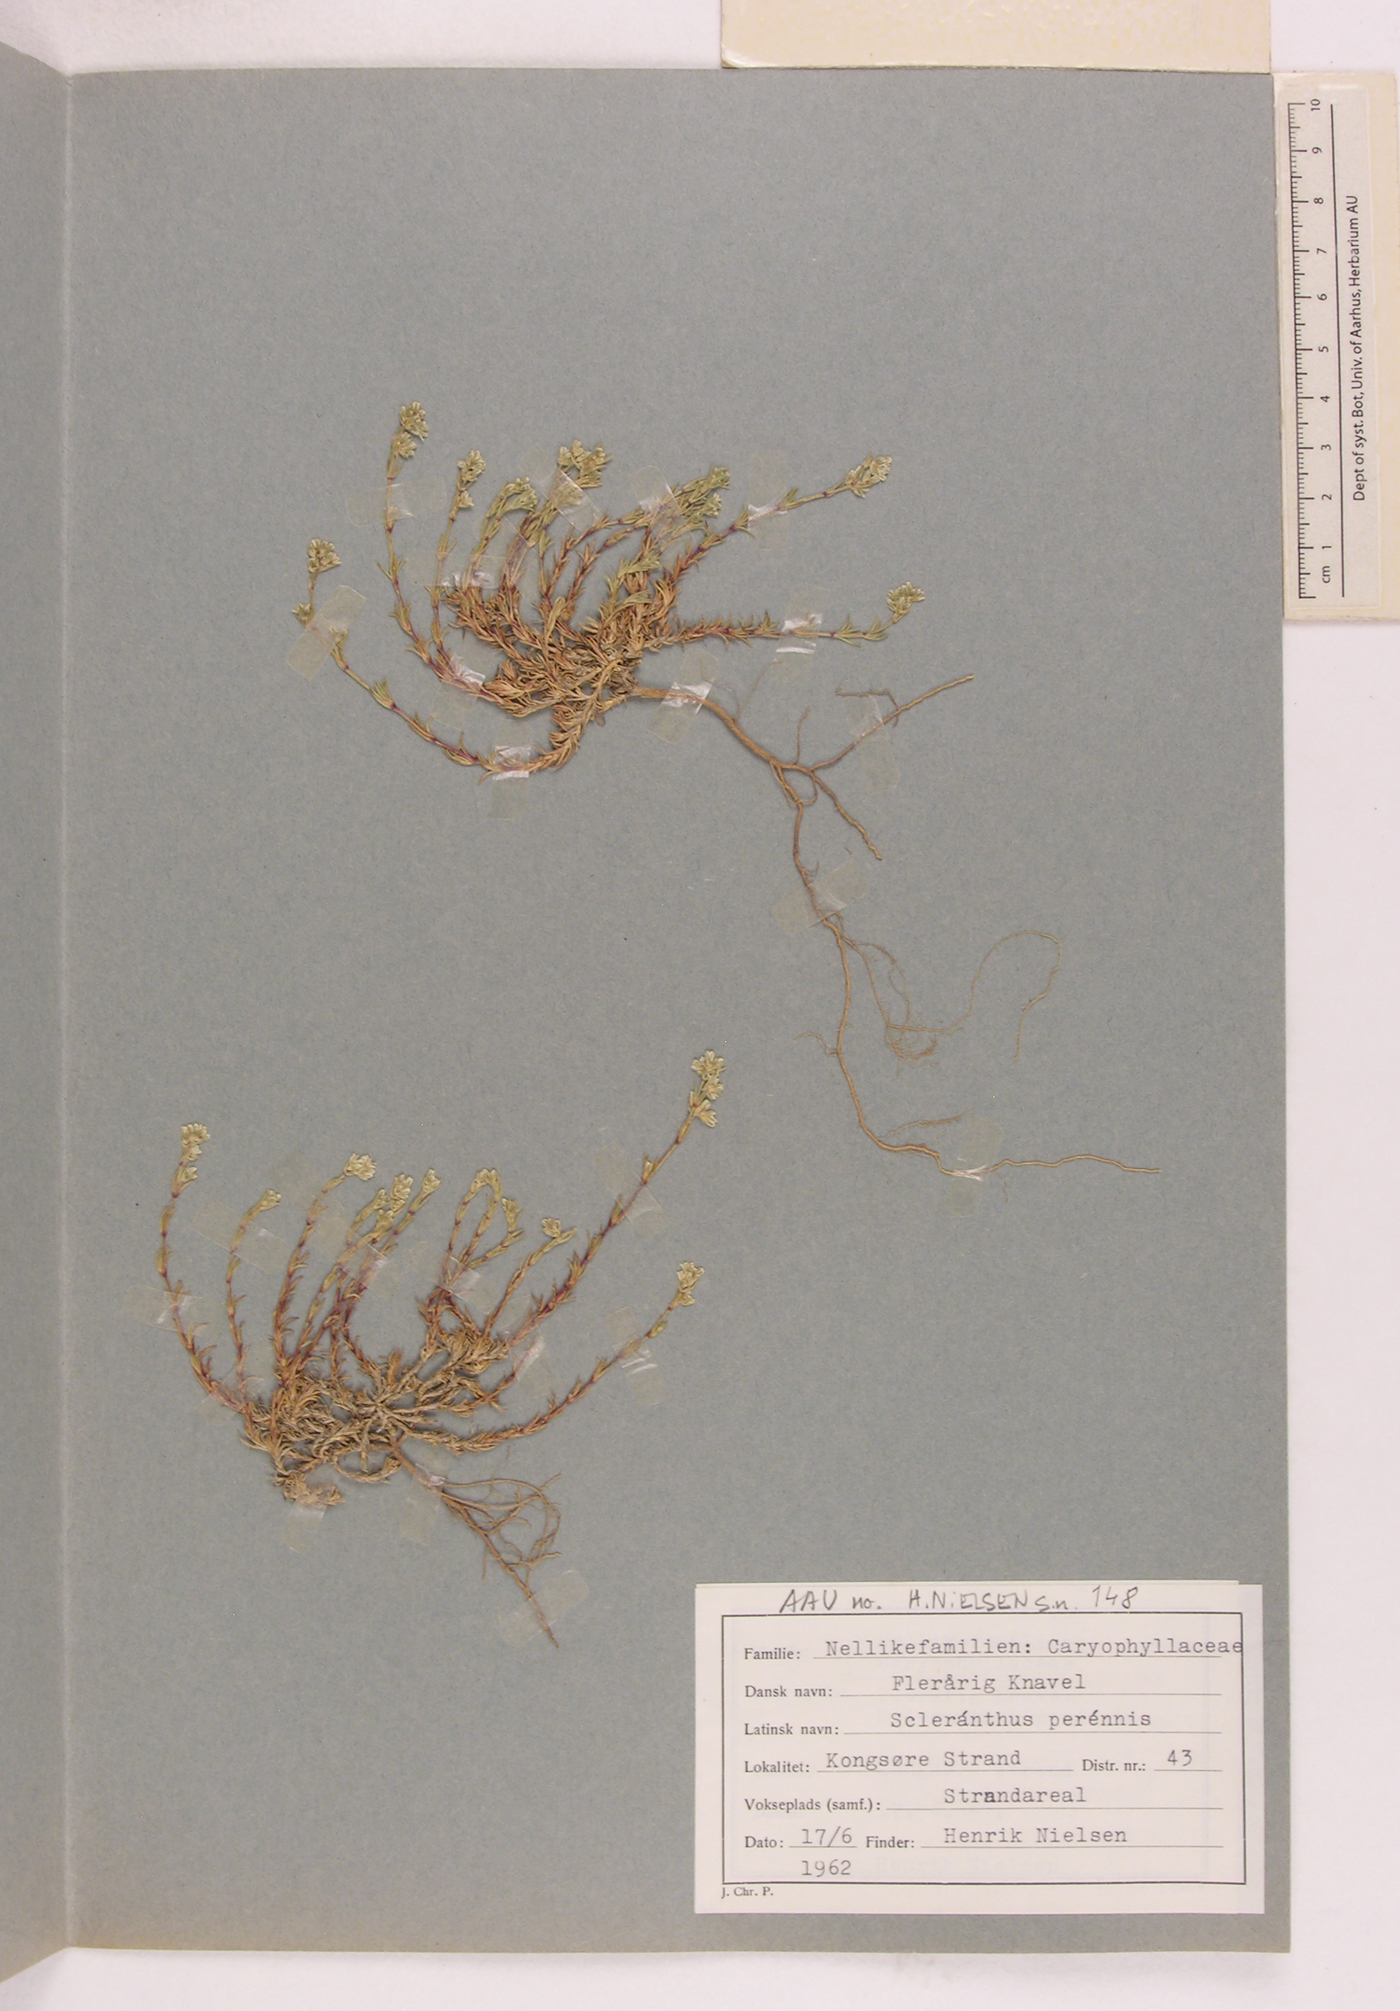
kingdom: Plantae
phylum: Tracheophyta
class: Magnoliopsida
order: Caryophyllales
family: Caryophyllaceae
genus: Scleranthus
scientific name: Scleranthus perennis
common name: Perennial knawel
